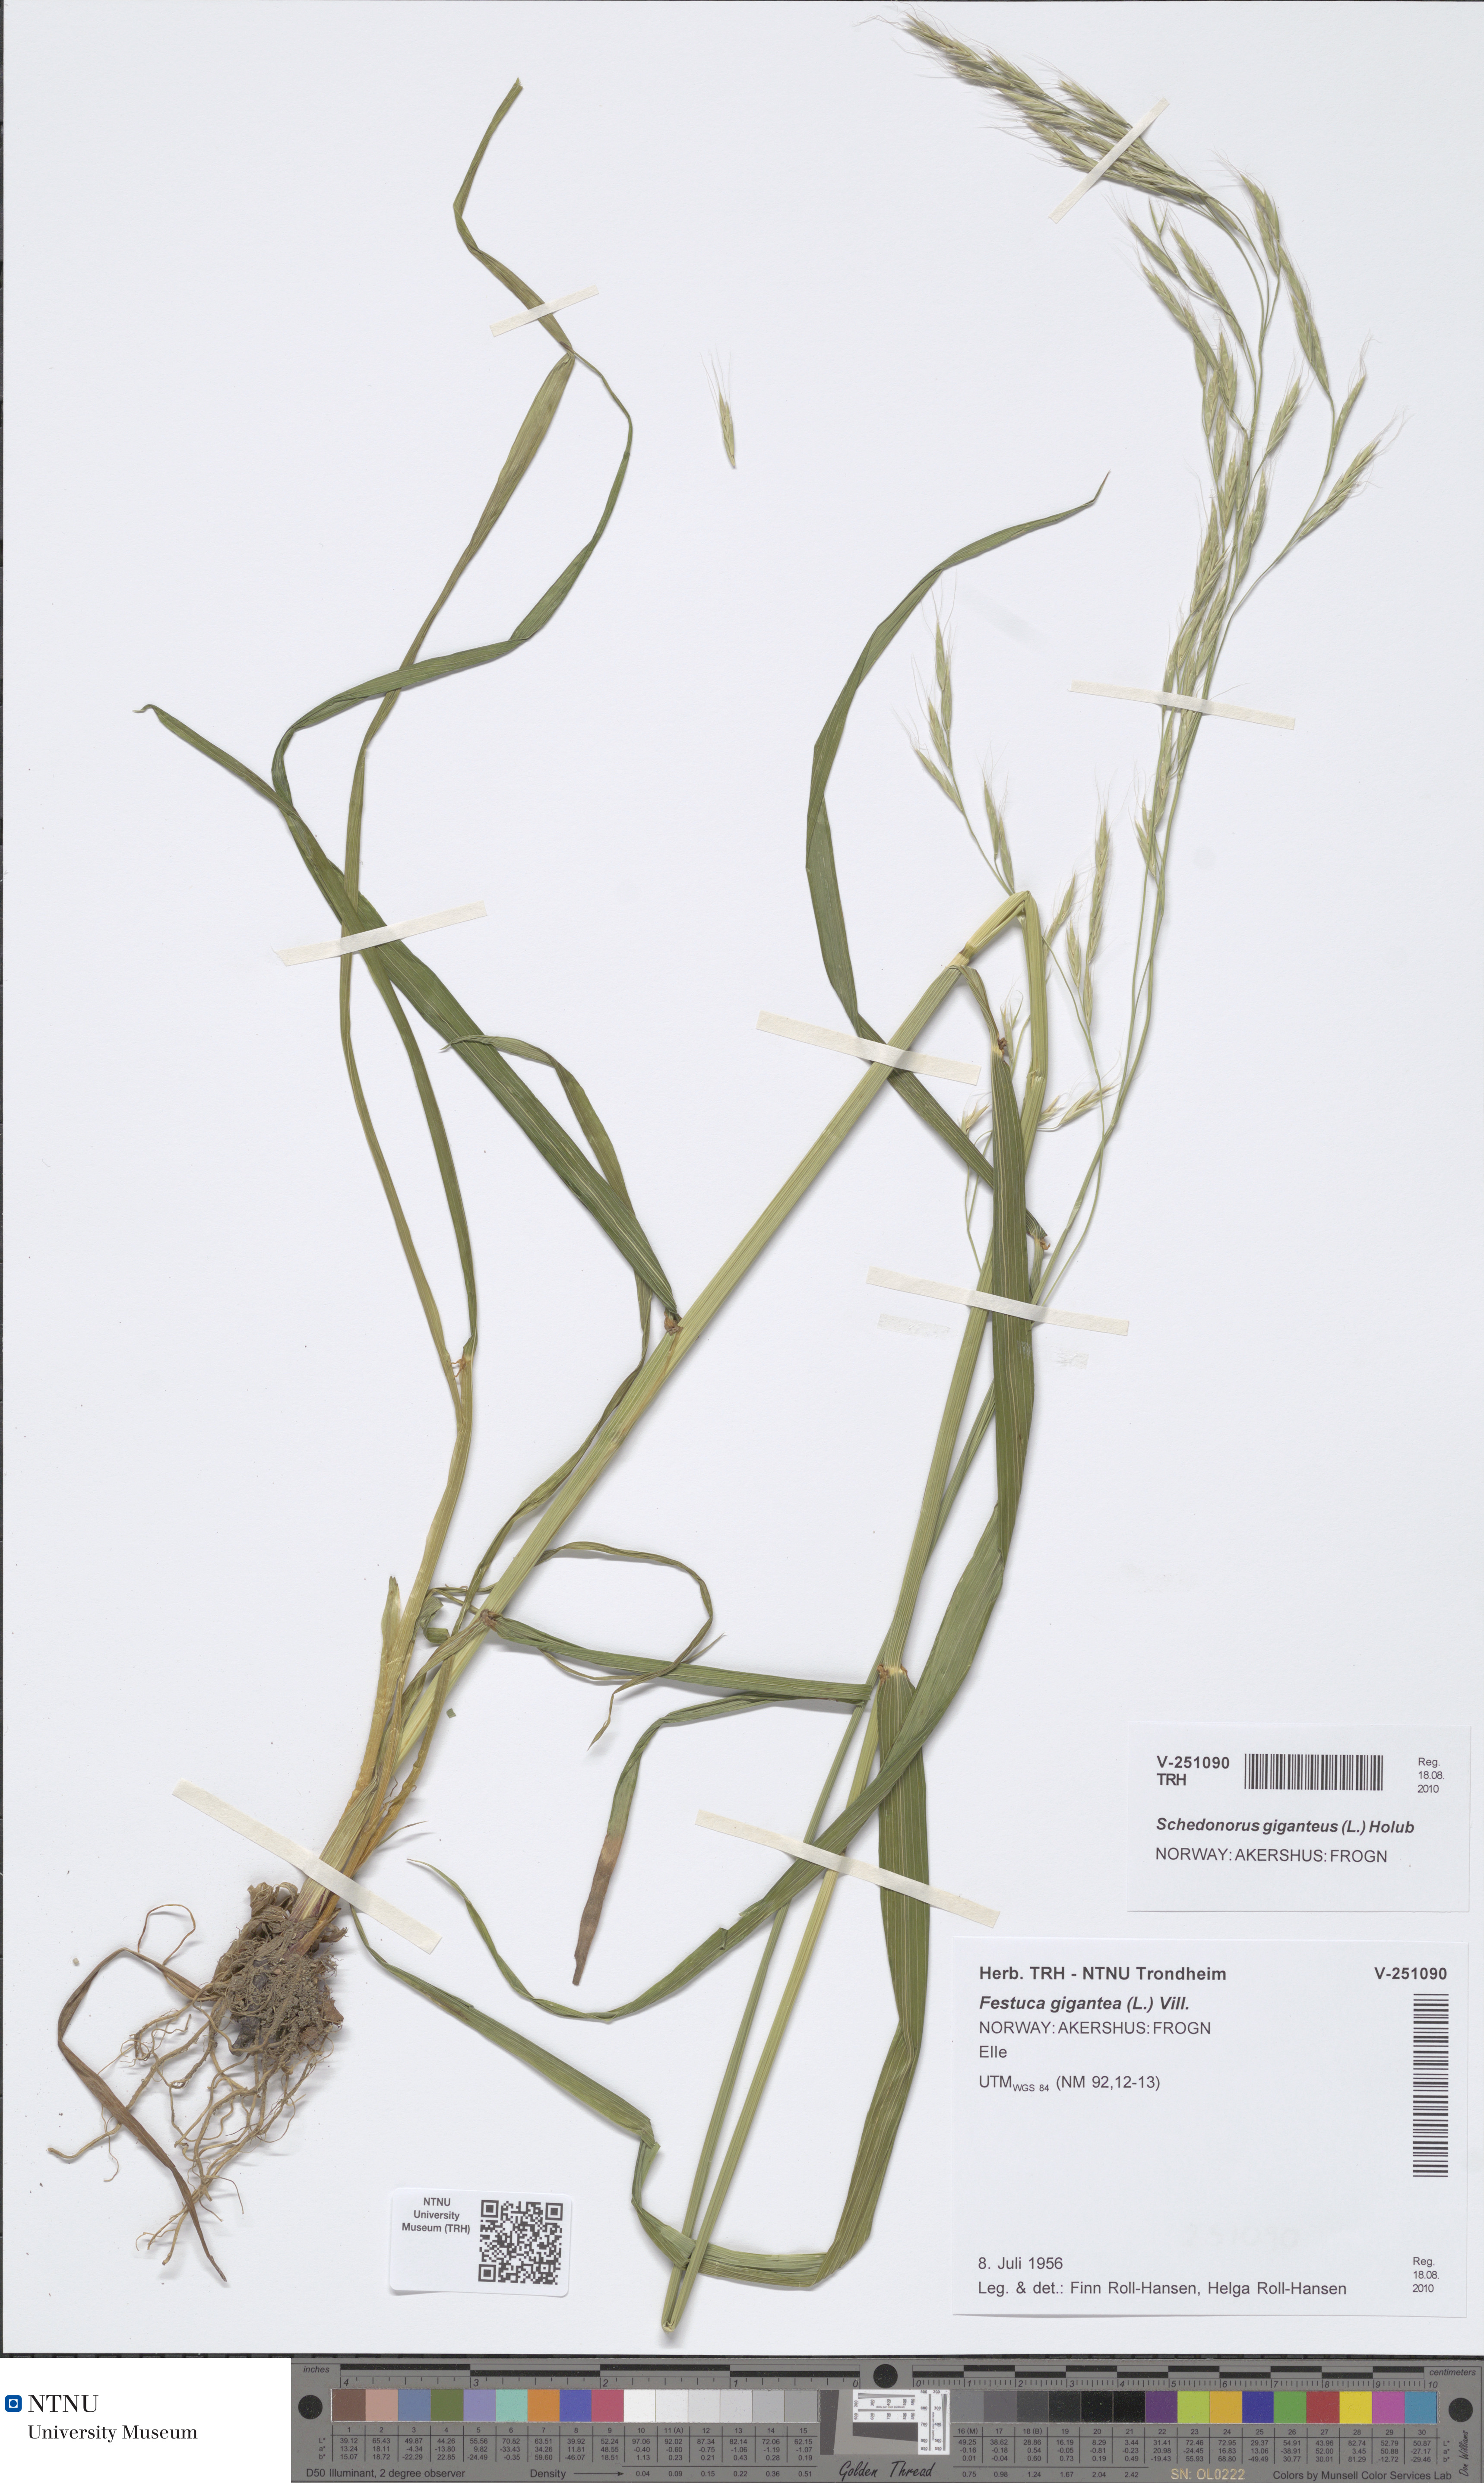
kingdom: Plantae
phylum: Tracheophyta
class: Liliopsida
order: Poales
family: Poaceae
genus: Lolium
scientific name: Lolium giganteum
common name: Giant fescue
